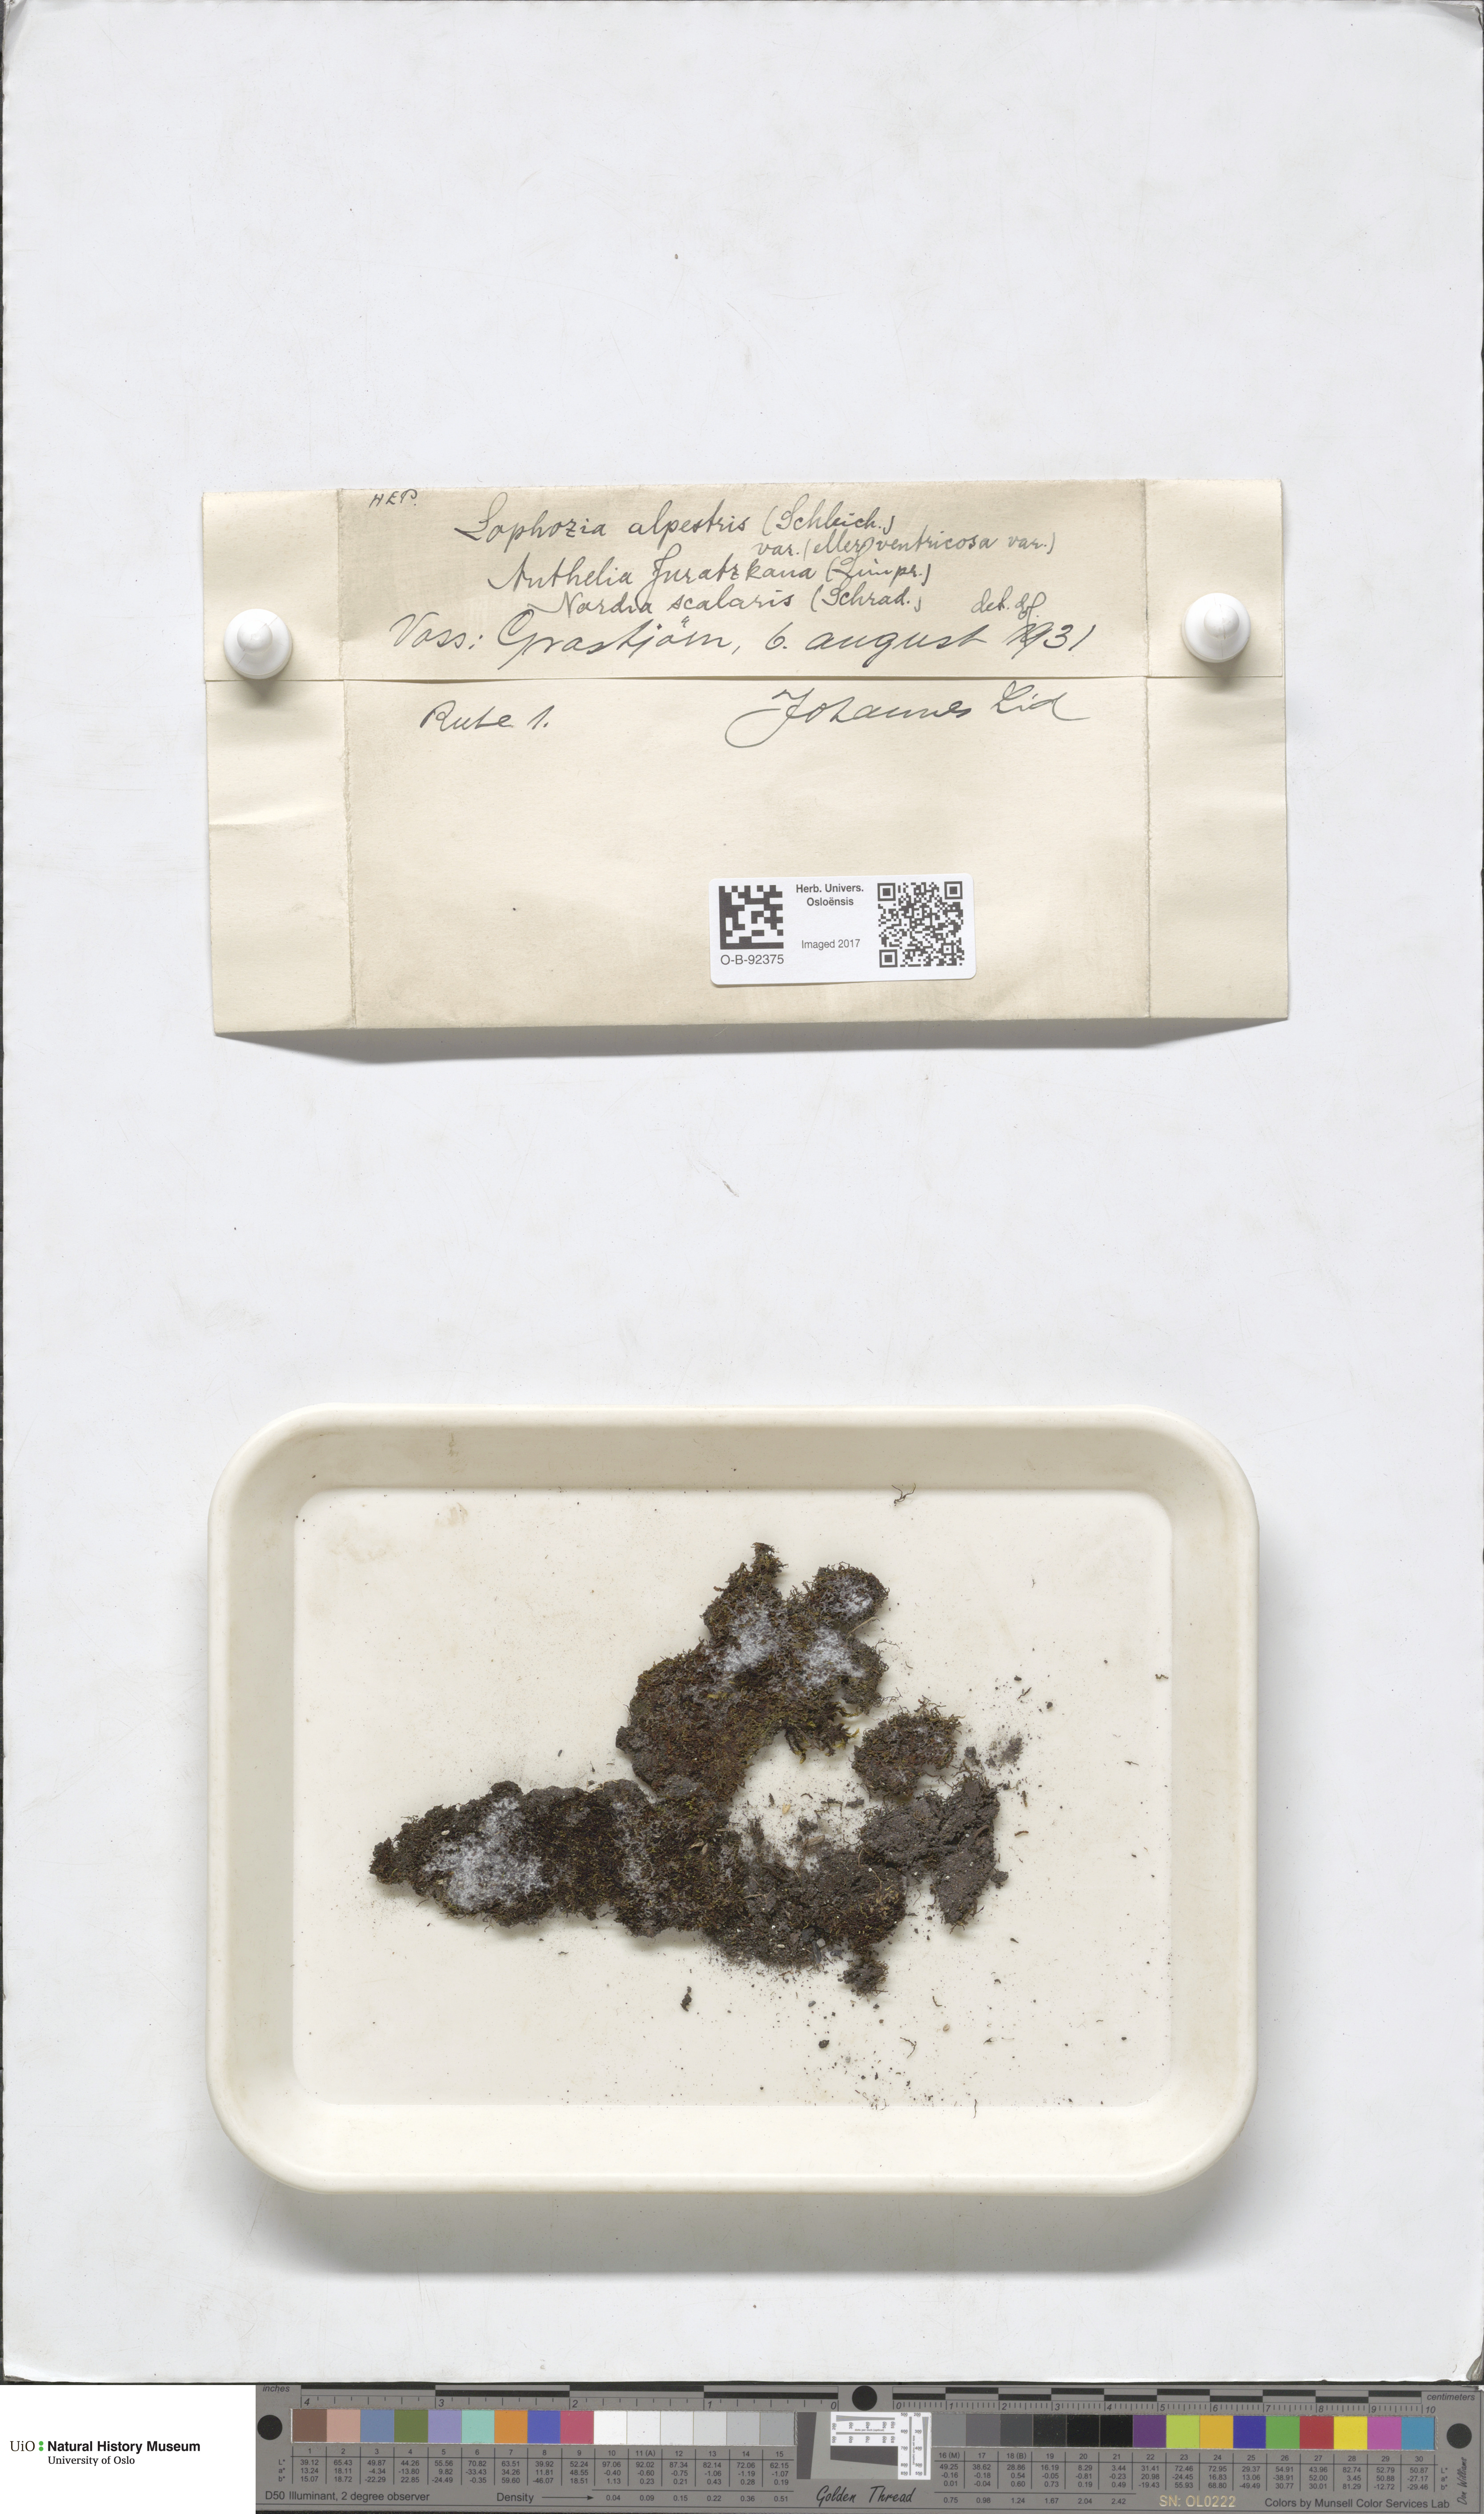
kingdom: Plantae
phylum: Marchantiophyta
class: Jungermanniopsida
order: Jungermanniales
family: Anastrophyllaceae
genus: Barbilophozia
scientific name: Barbilophozia sudetica
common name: Hill notchwort
